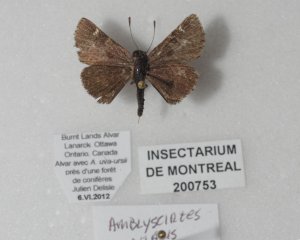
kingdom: Animalia
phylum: Arthropoda
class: Insecta
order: Lepidoptera
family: Hesperiidae
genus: Mastor
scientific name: Mastor vialis
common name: Common Roadside-Skipper
